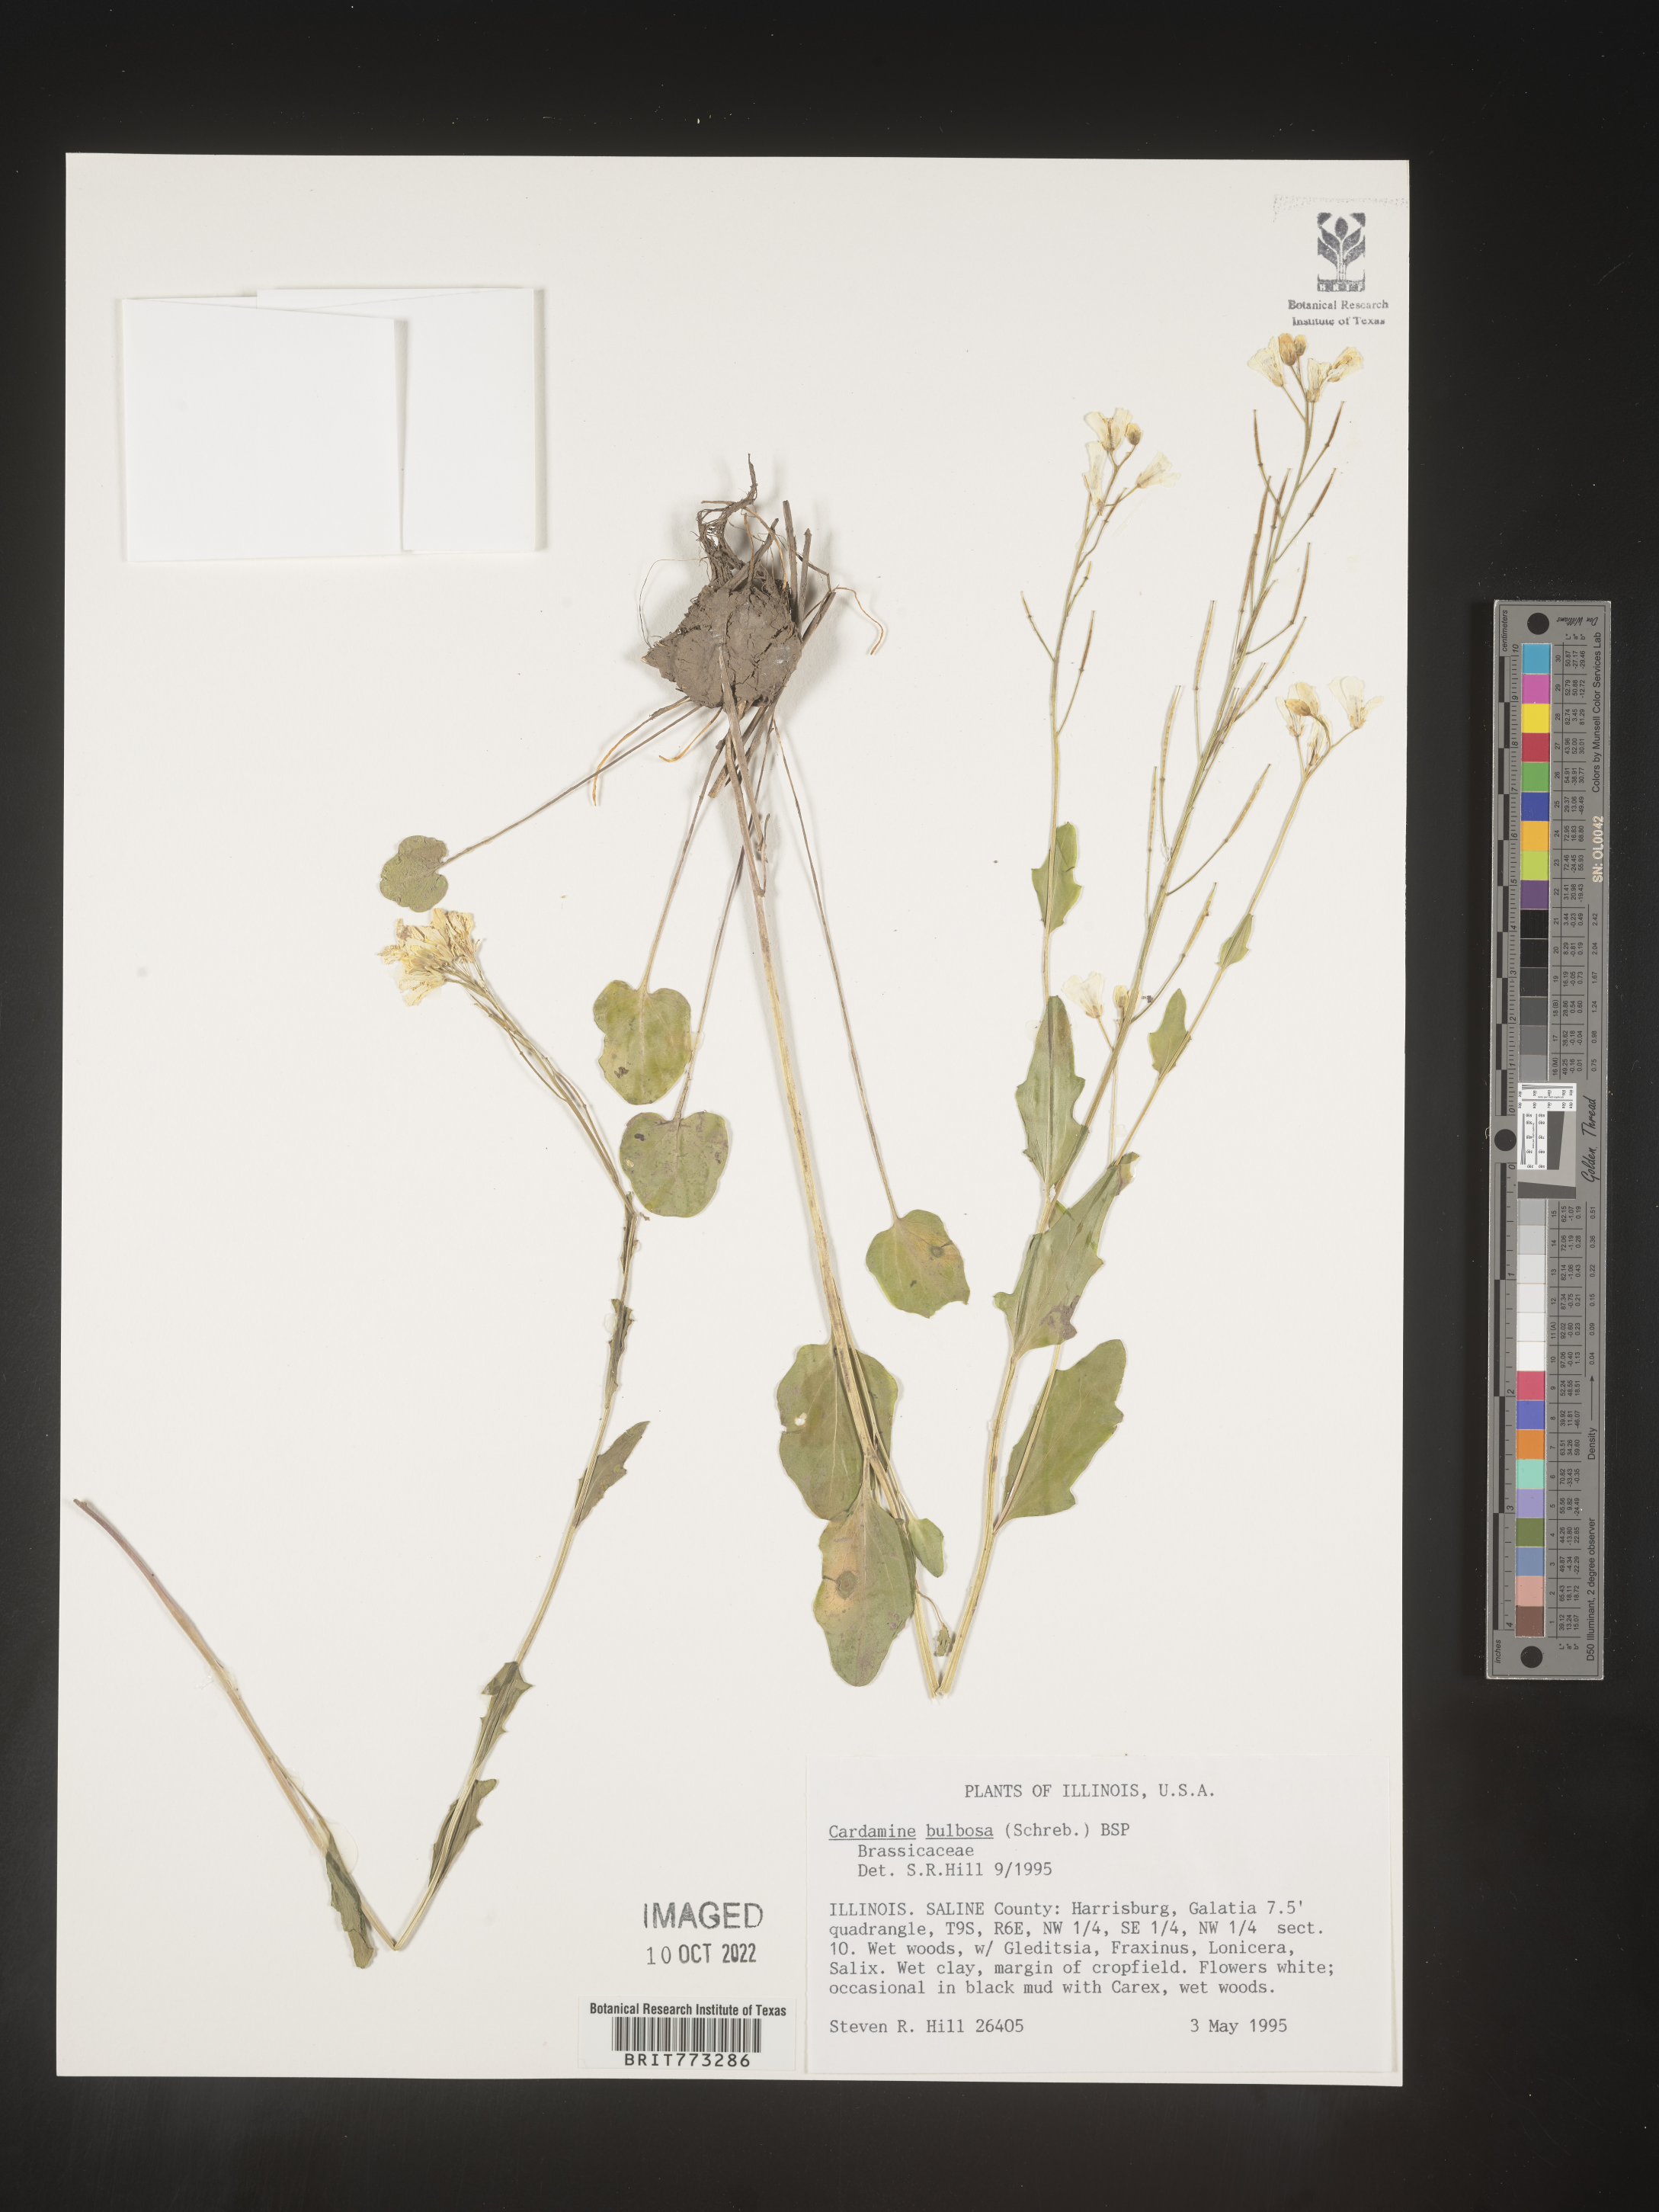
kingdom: Plantae
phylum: Tracheophyta
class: Magnoliopsida
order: Brassicales
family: Brassicaceae
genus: Cardamine
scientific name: Cardamine bulbosa
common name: Spring cress
